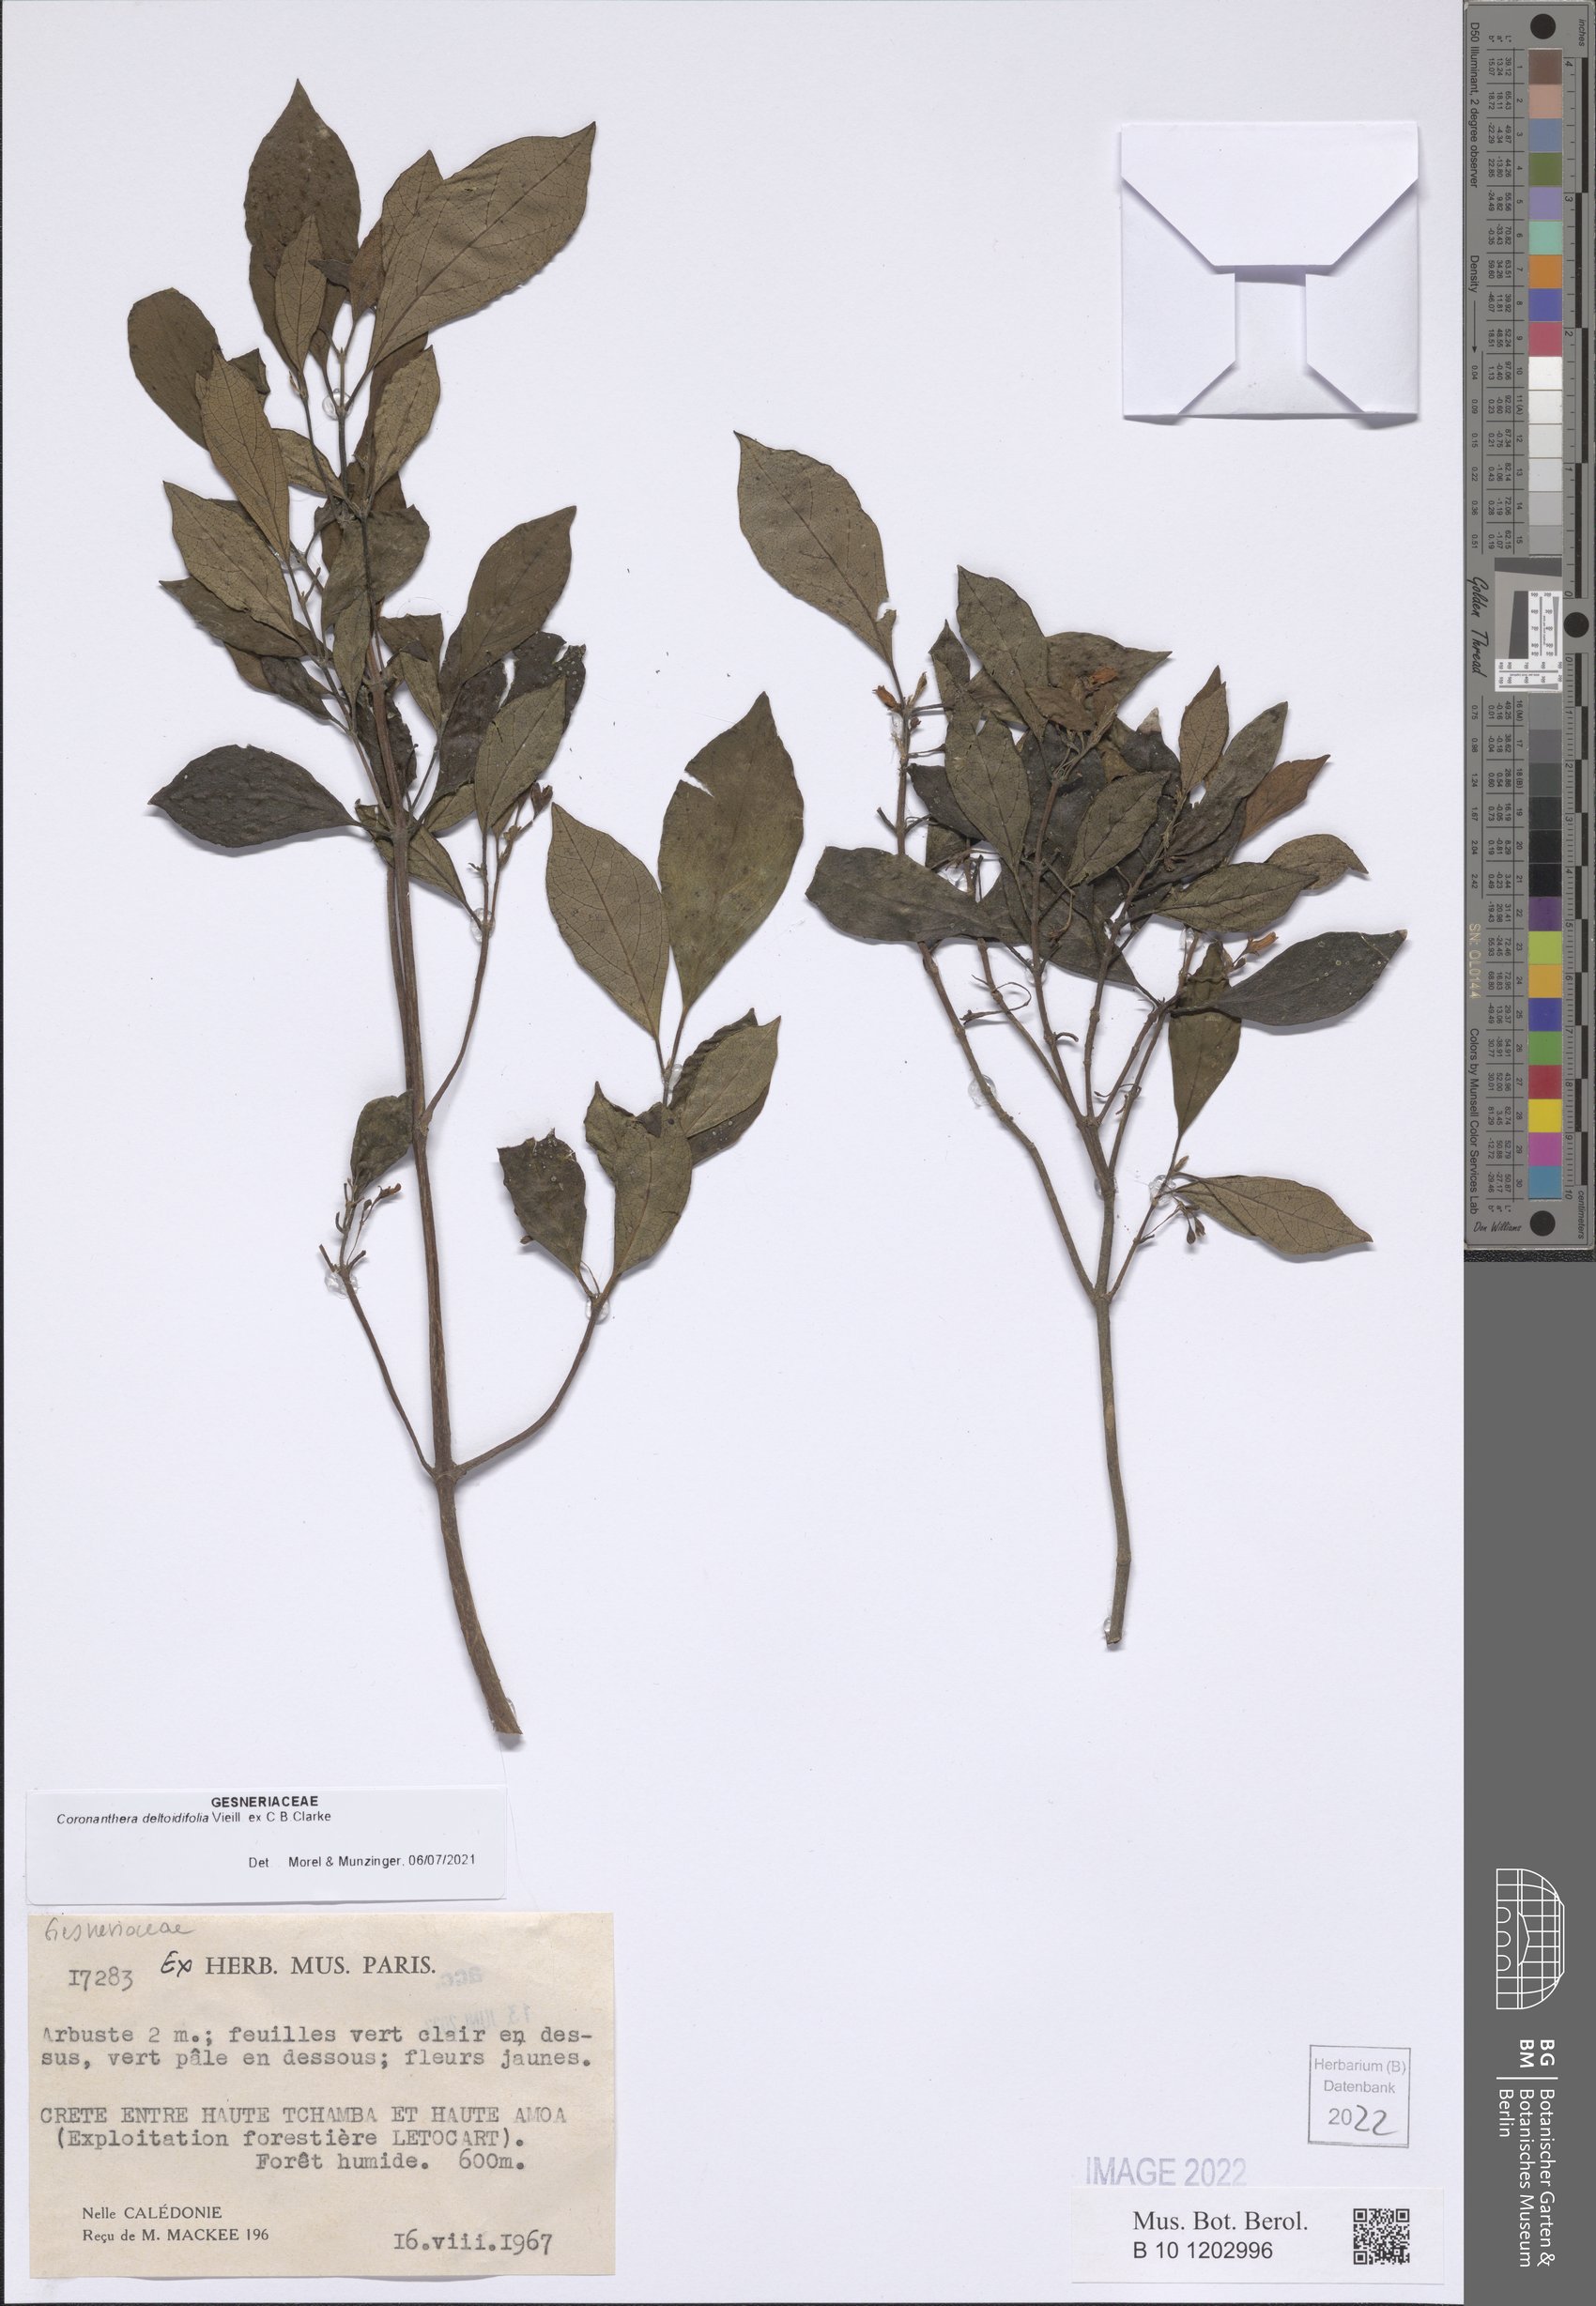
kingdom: Plantae
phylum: Tracheophyta
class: Magnoliopsida
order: Lamiales
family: Gesneriaceae
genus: Coronanthera
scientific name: Coronanthera deltoidifolia
